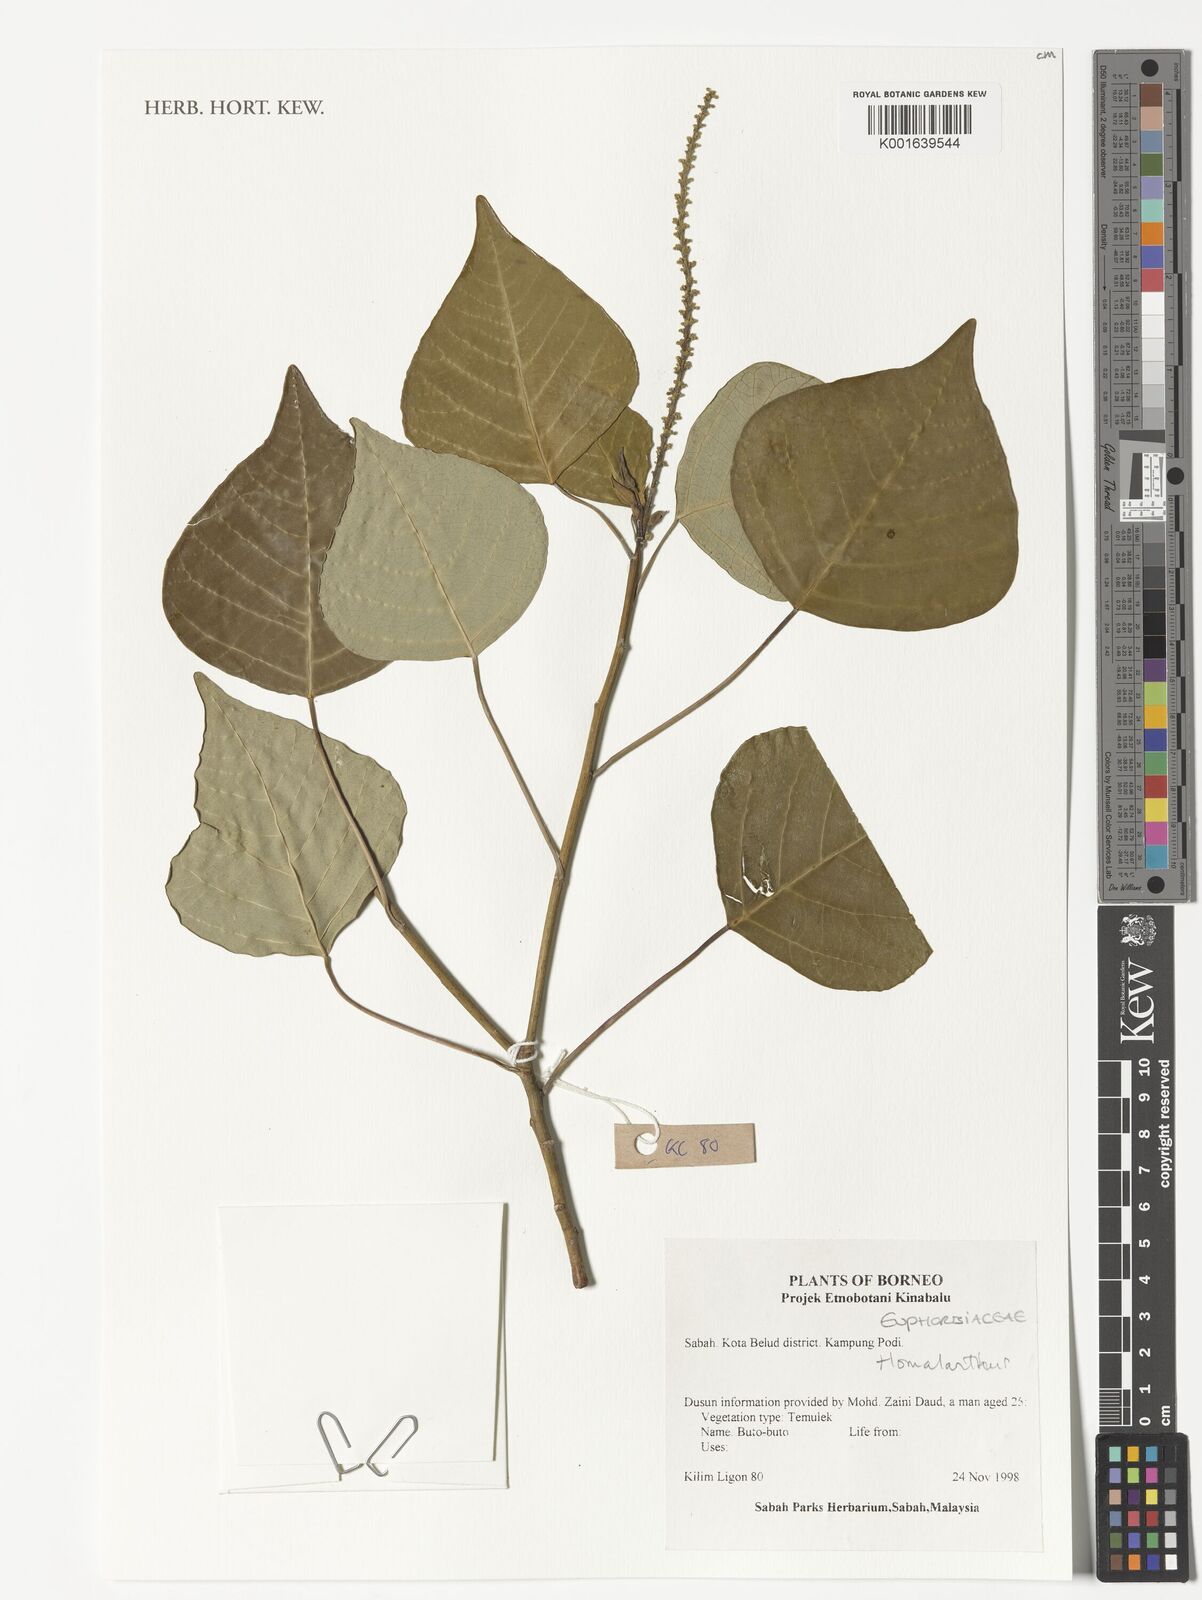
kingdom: Plantae
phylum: Tracheophyta
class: Magnoliopsida
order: Malpighiales
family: Euphorbiaceae
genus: Homalanthus
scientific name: Homalanthus
